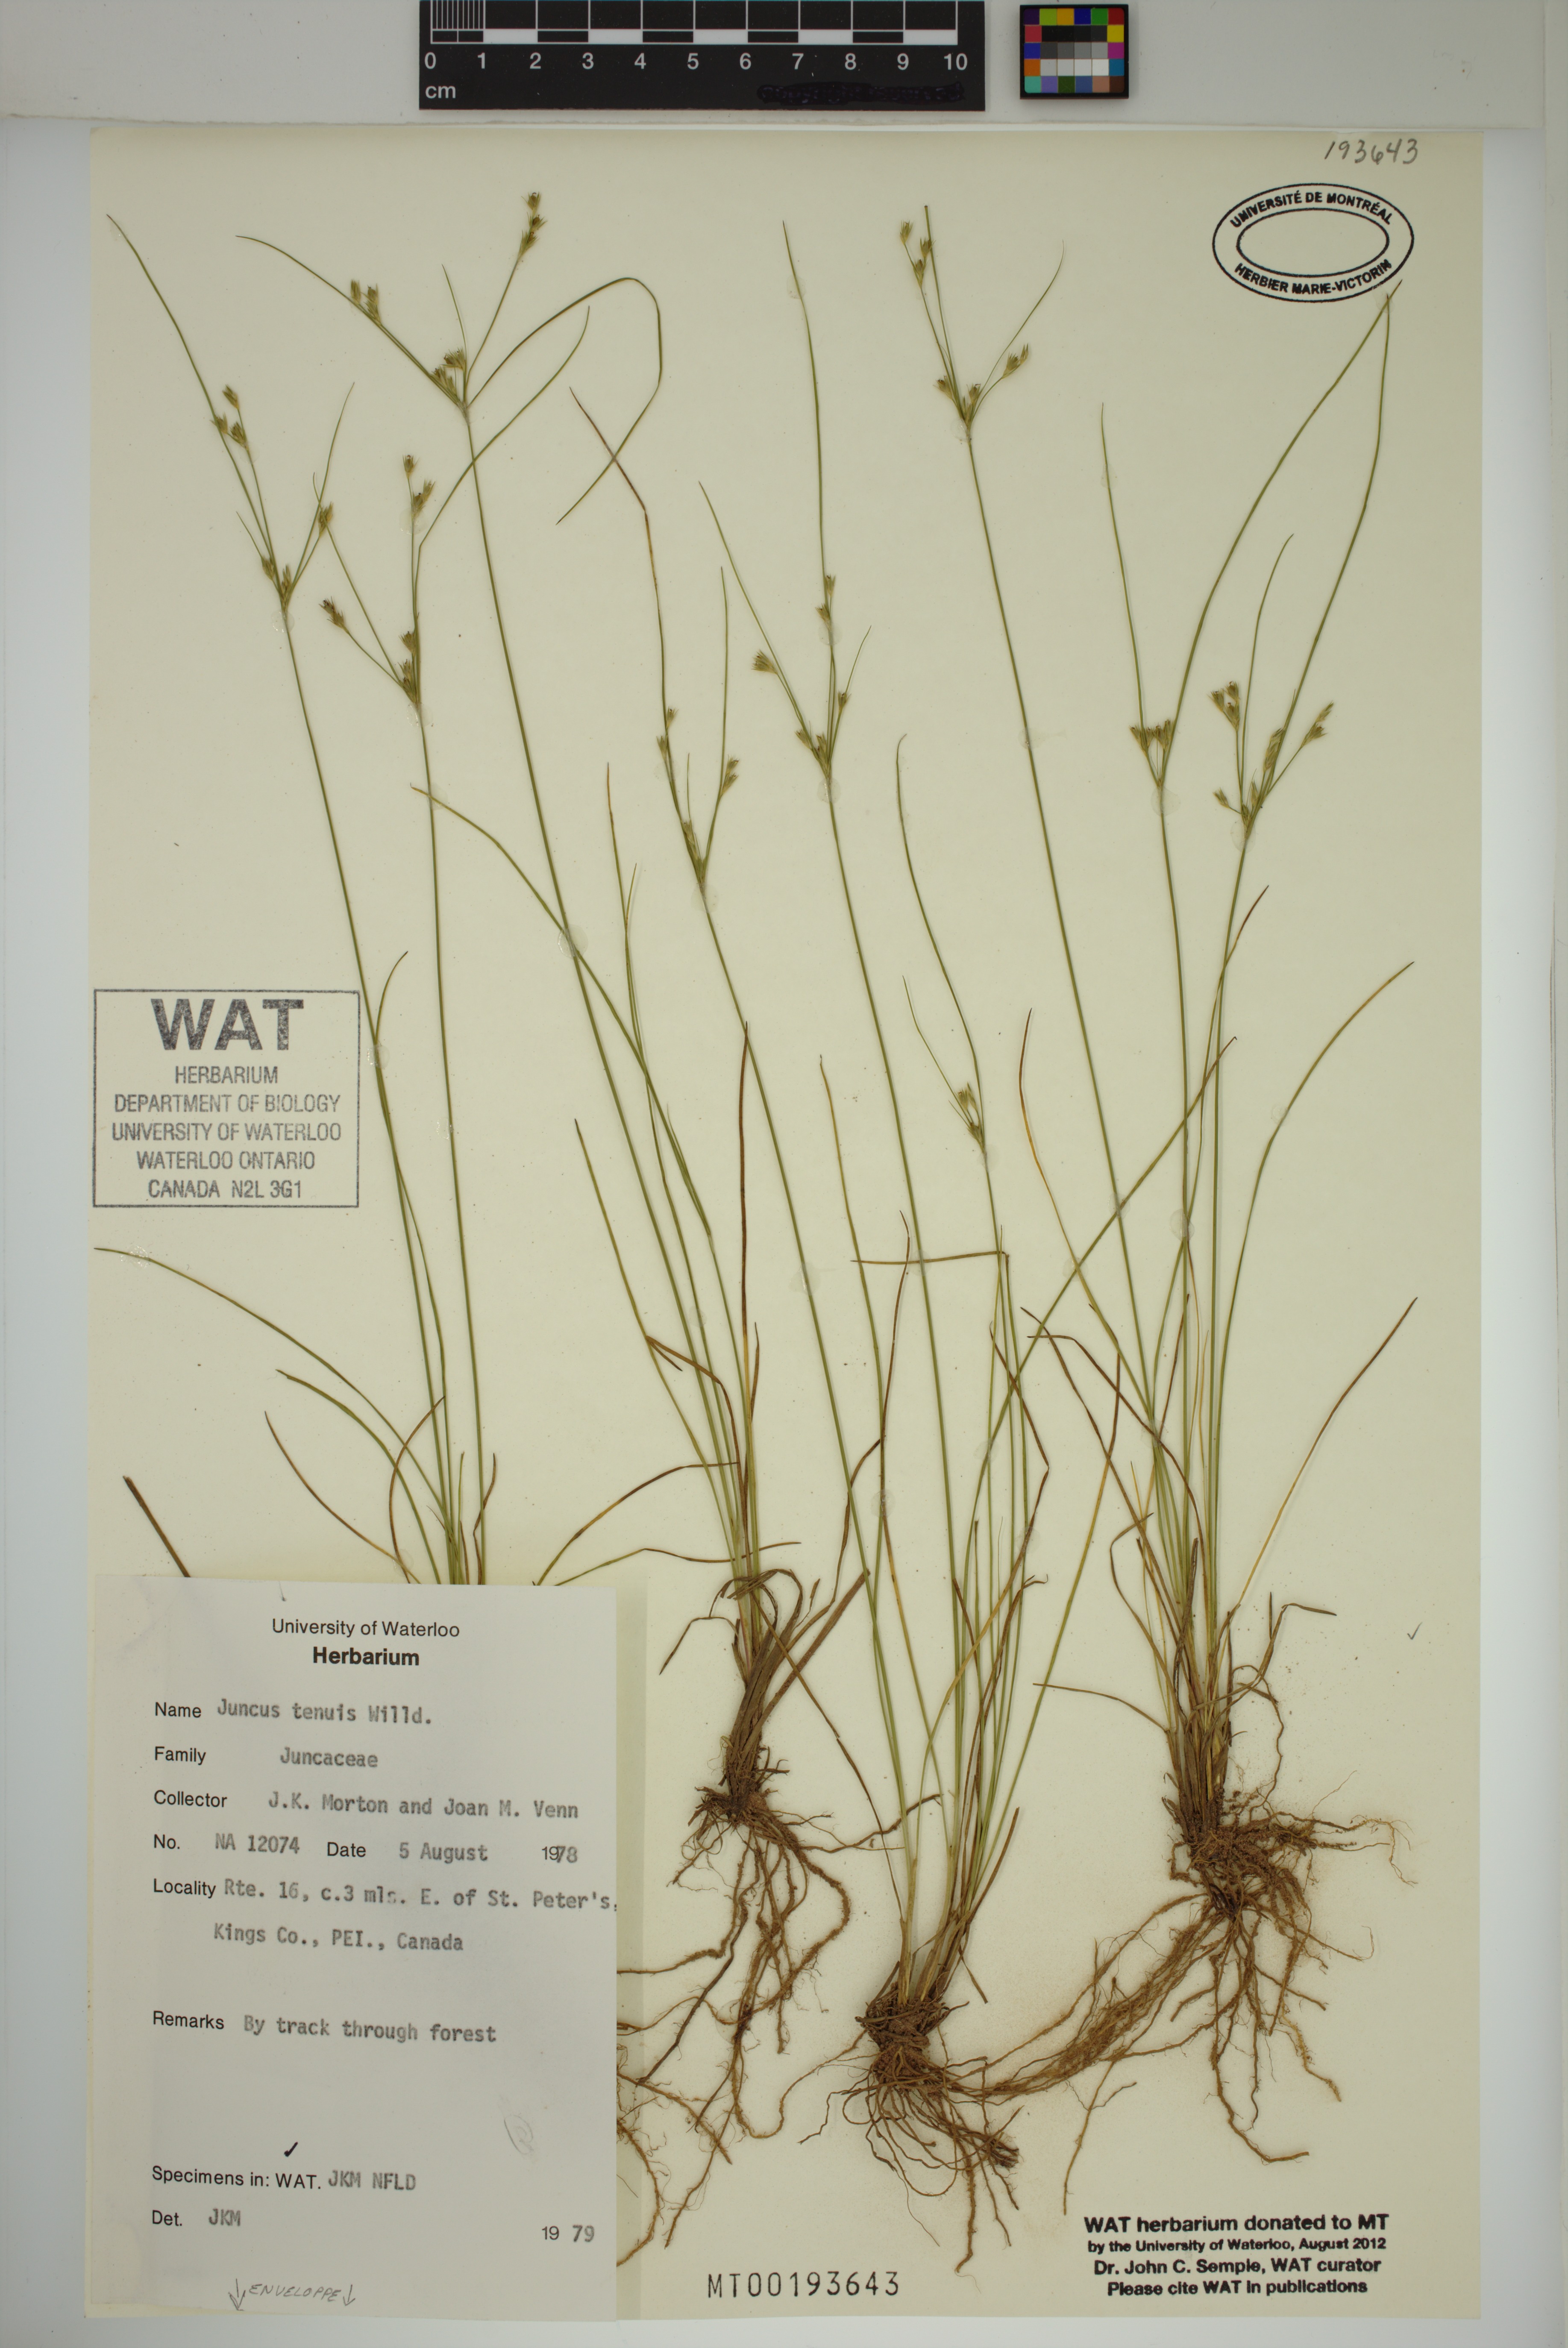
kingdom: Plantae
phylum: Tracheophyta
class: Liliopsida
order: Poales
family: Juncaceae
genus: Juncus
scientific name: Juncus tenuis
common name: Slender rush
